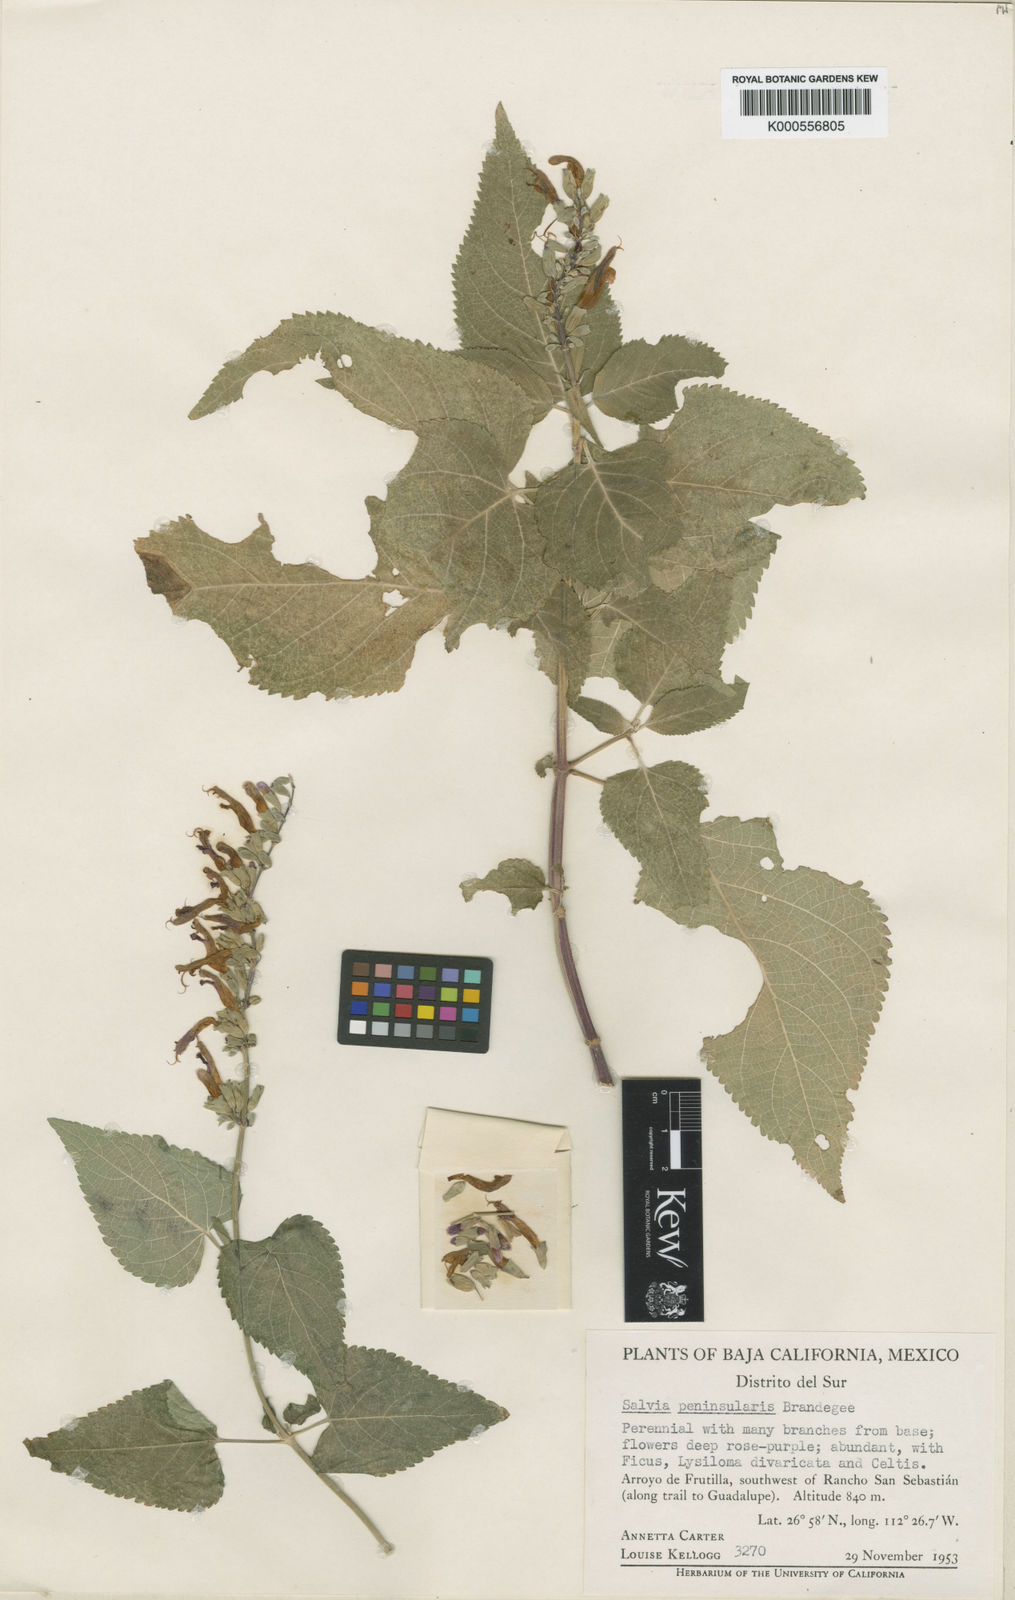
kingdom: Plantae
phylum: Tracheophyta
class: Magnoliopsida
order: Lamiales
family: Lamiaceae
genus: Salvia
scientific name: Salvia peninsularis
